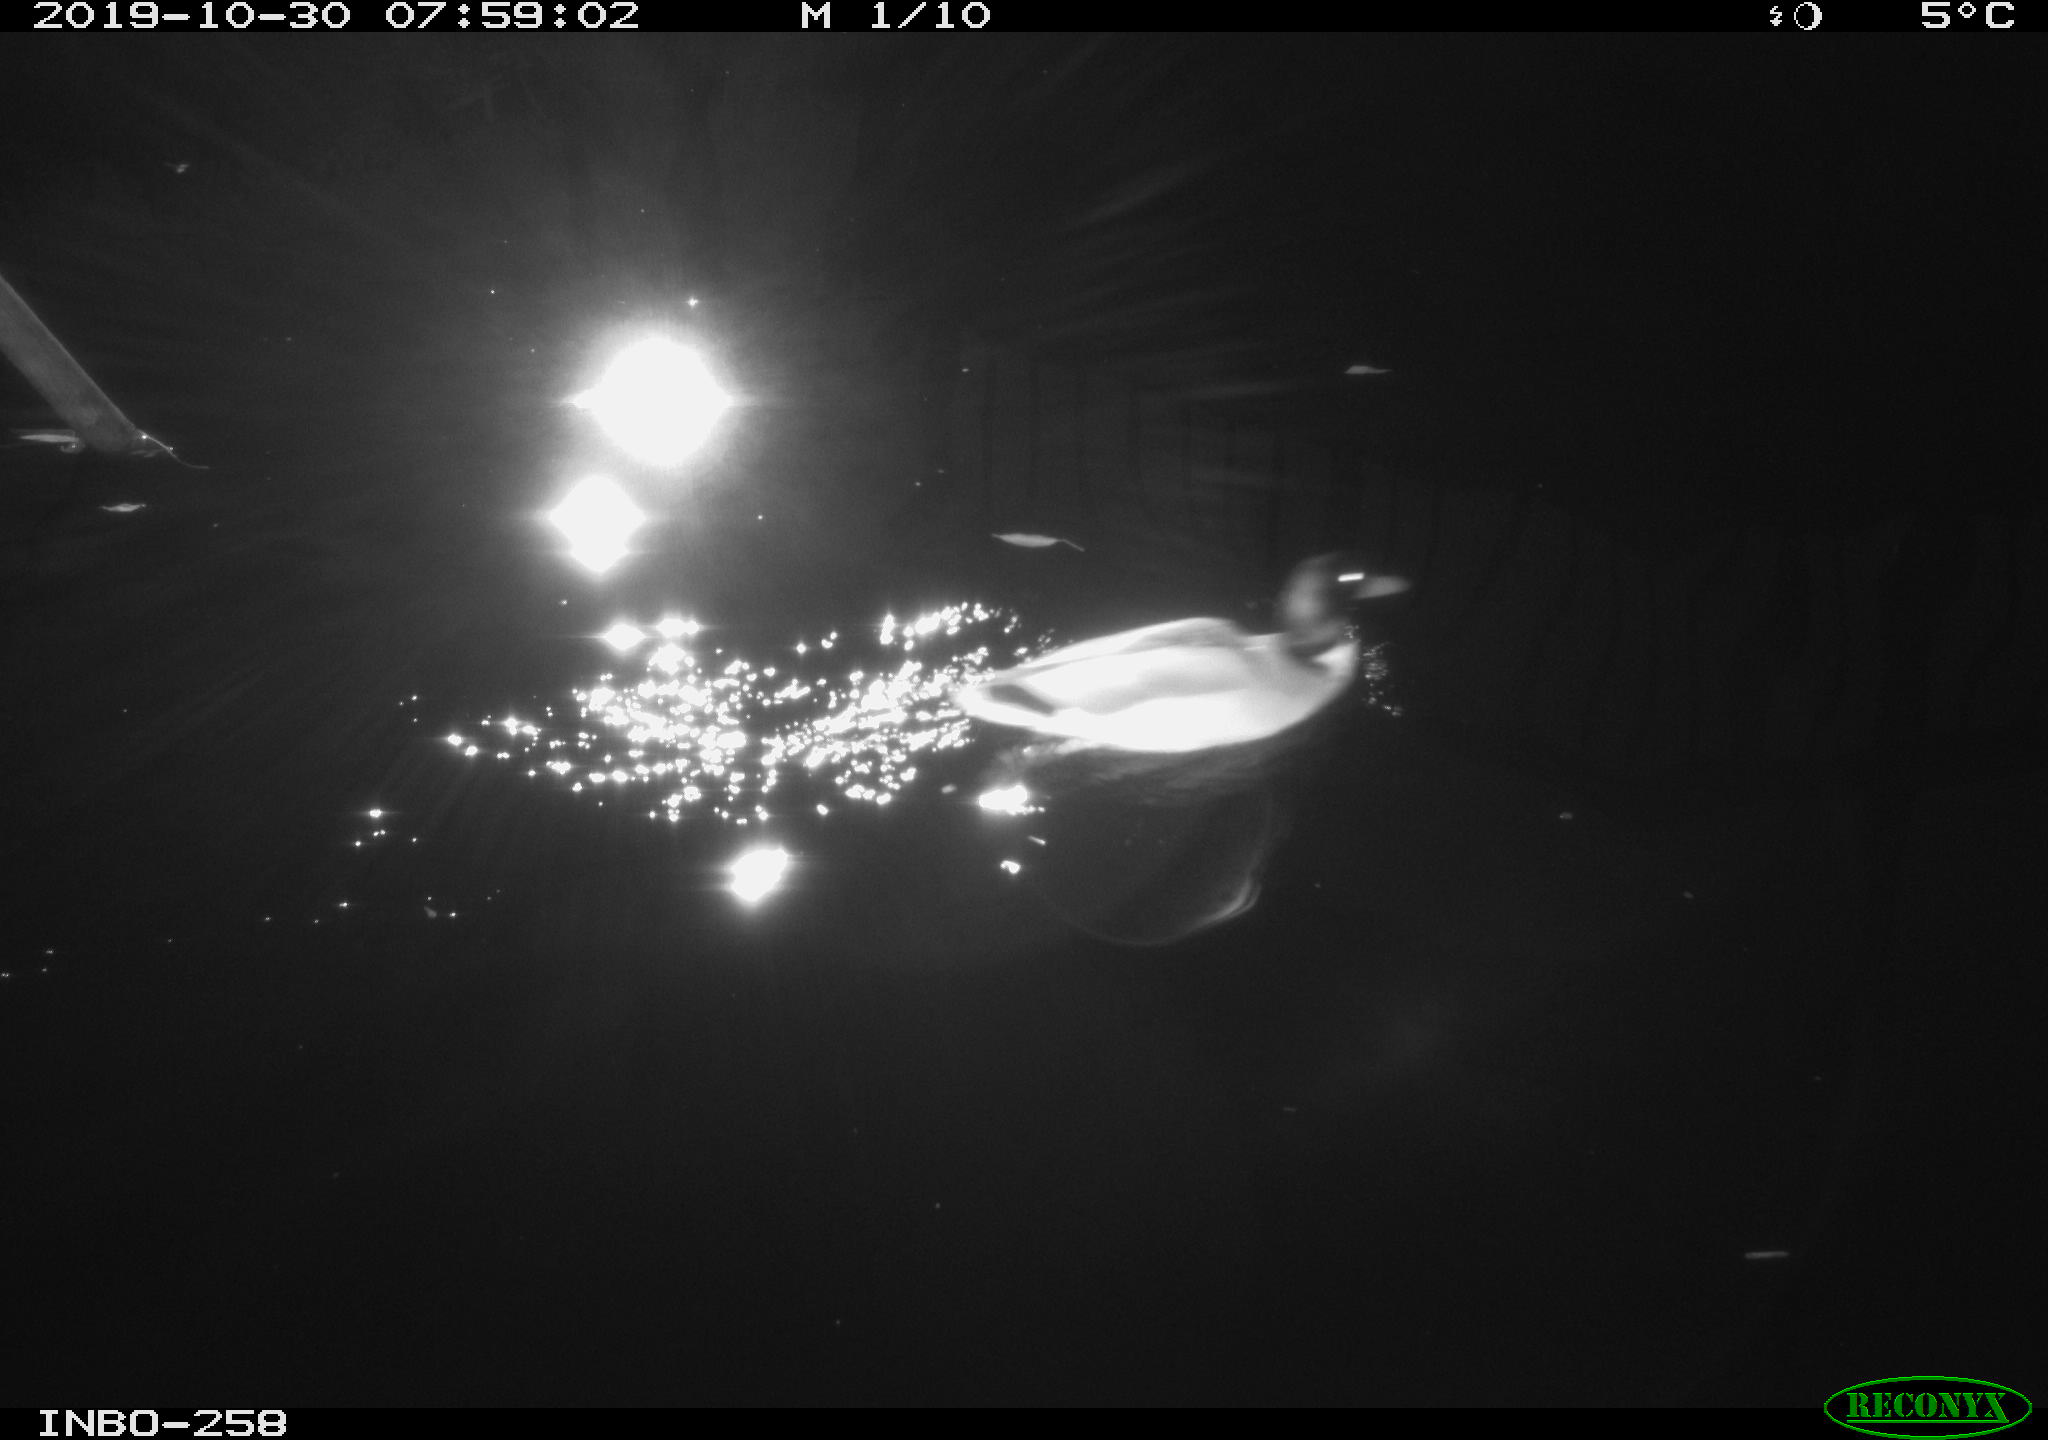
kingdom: Animalia
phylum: Chordata
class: Aves
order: Anseriformes
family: Anatidae
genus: Anas
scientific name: Anas platyrhynchos
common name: Mallard
